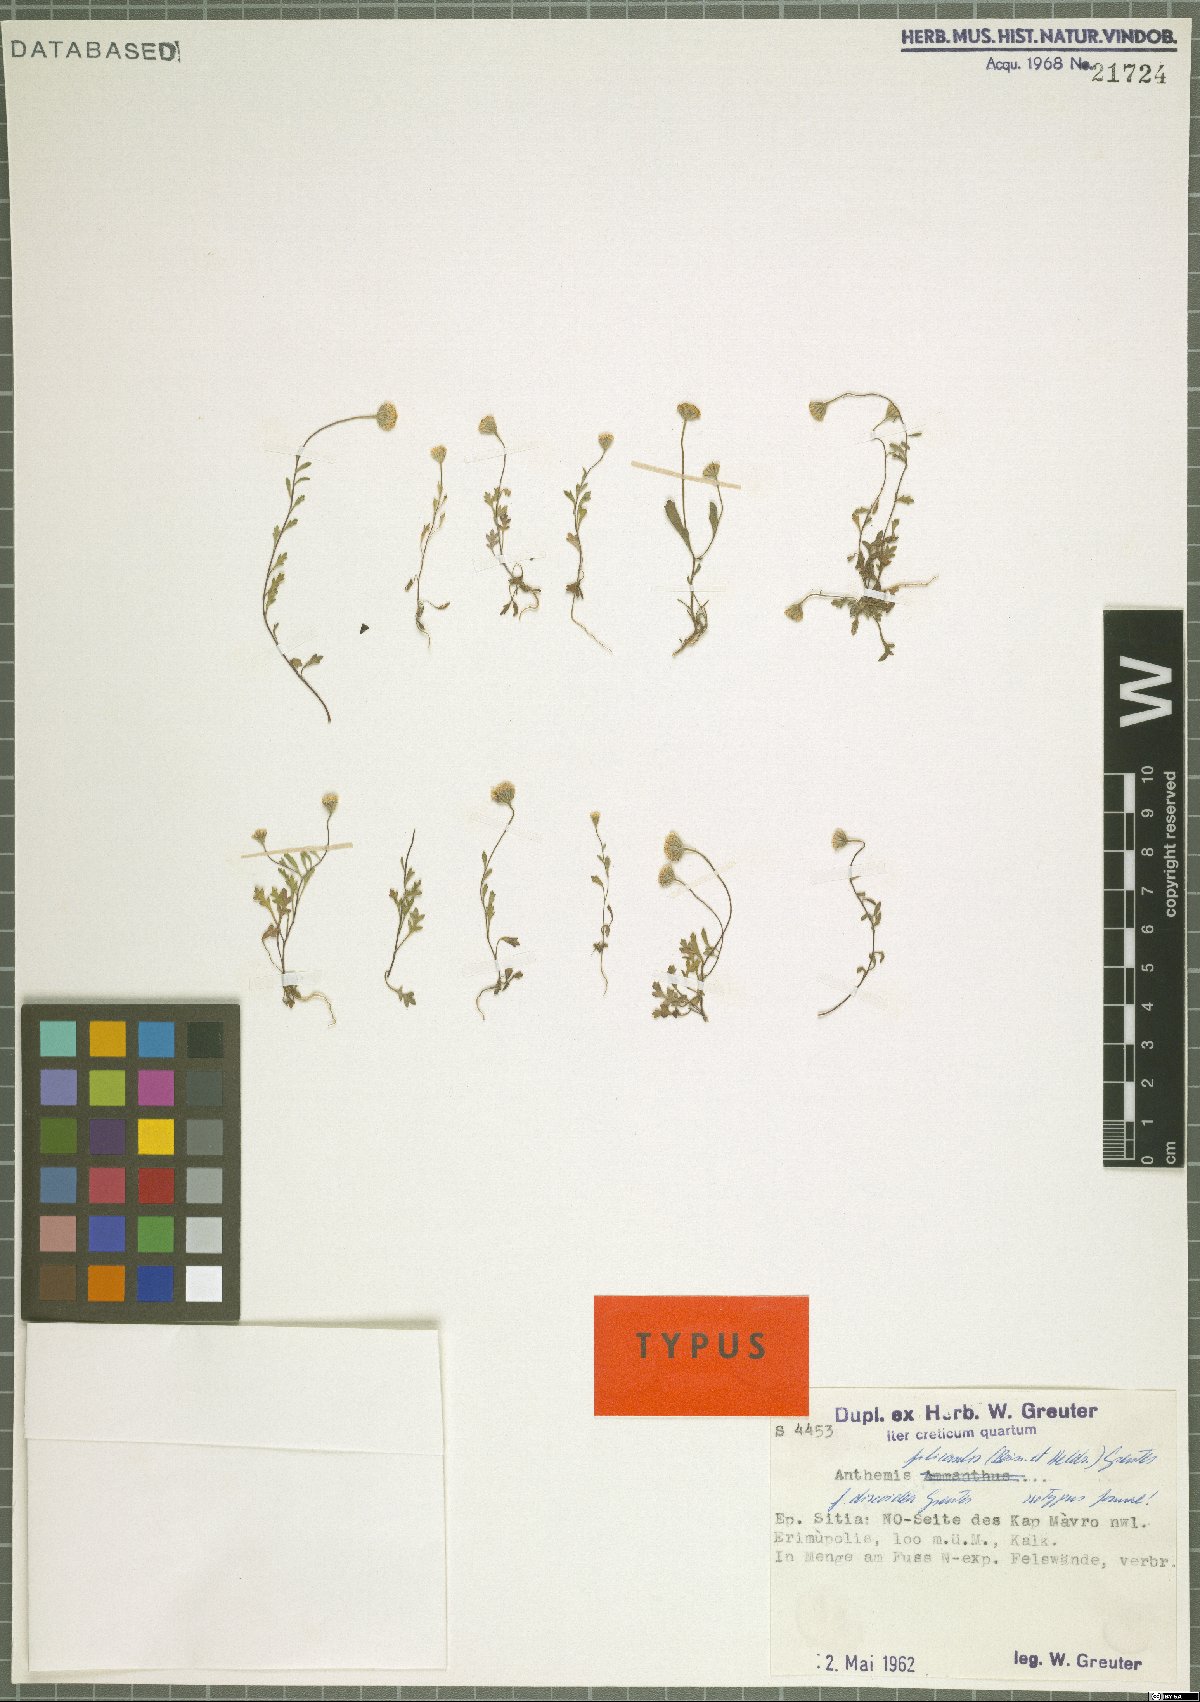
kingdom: Plantae
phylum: Tracheophyta
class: Magnoliopsida
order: Asterales
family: Asteraceae
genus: Anthemis
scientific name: Anthemis filicaulis
